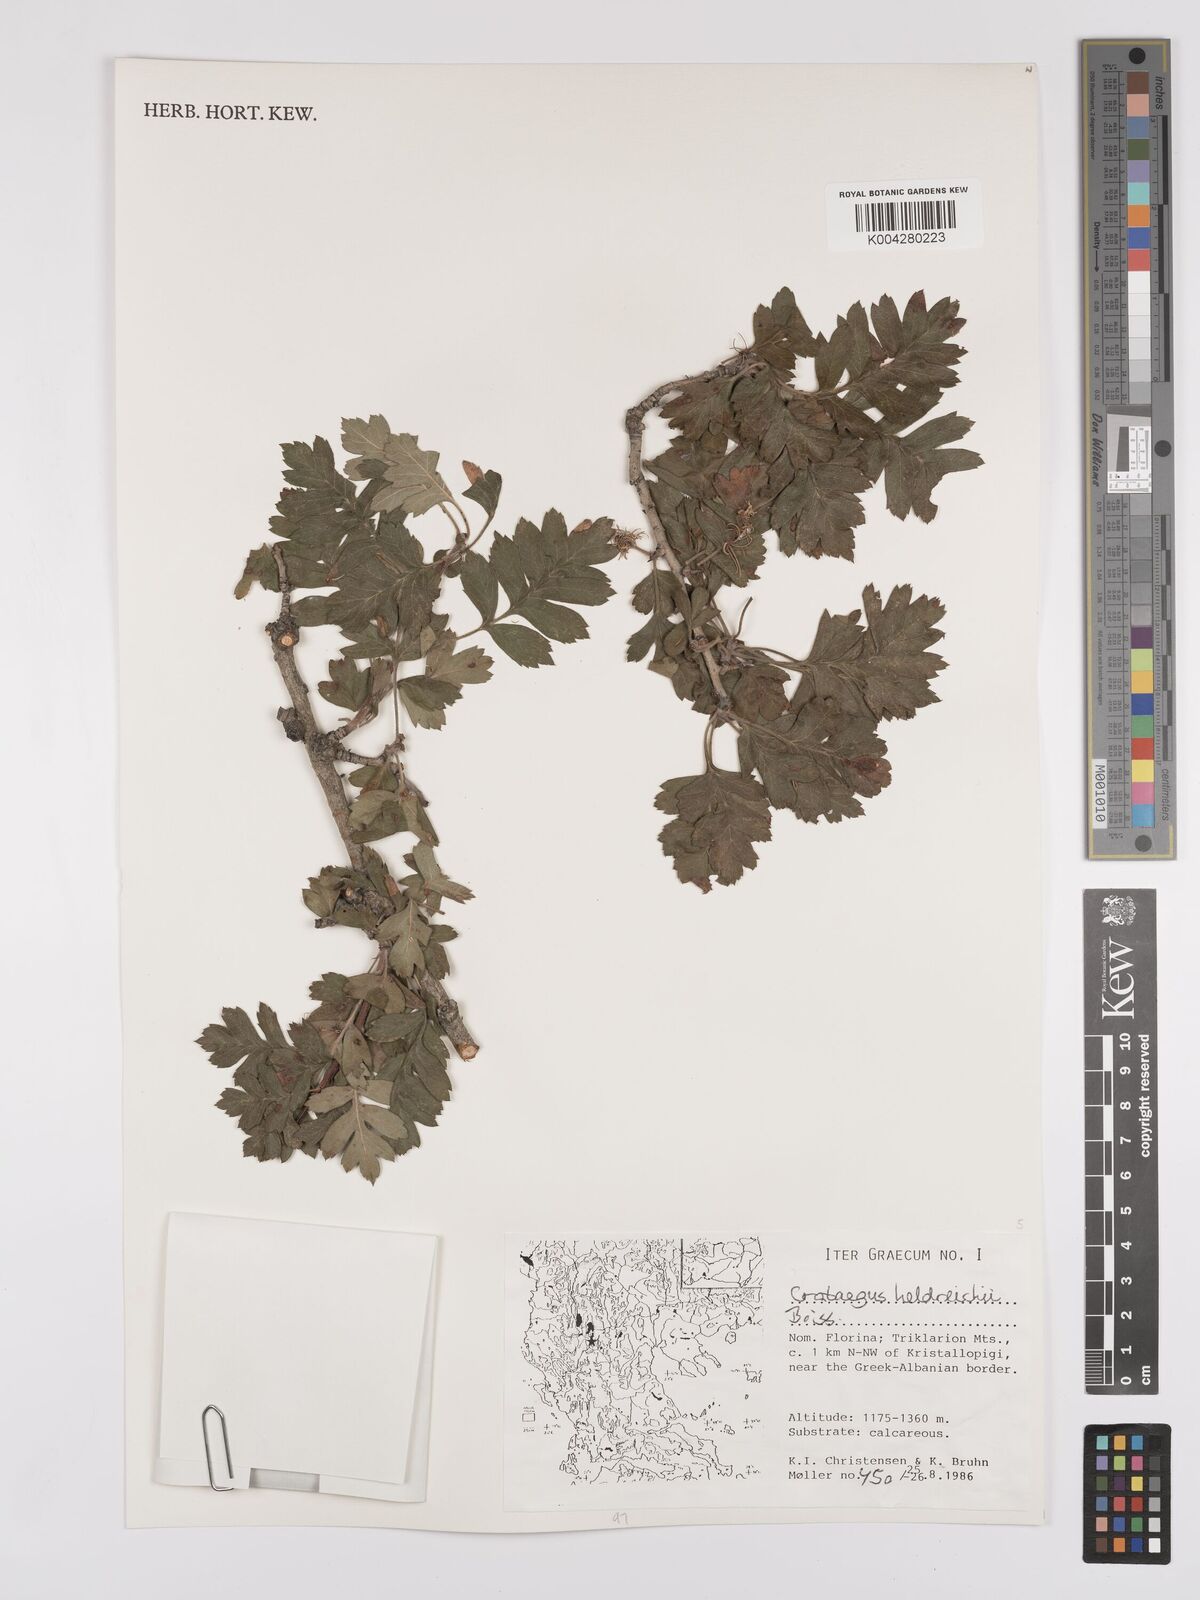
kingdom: Plantae
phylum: Tracheophyta
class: Magnoliopsida
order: Rosales
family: Rosaceae
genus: Crataegus
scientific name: Crataegus heldreichii
